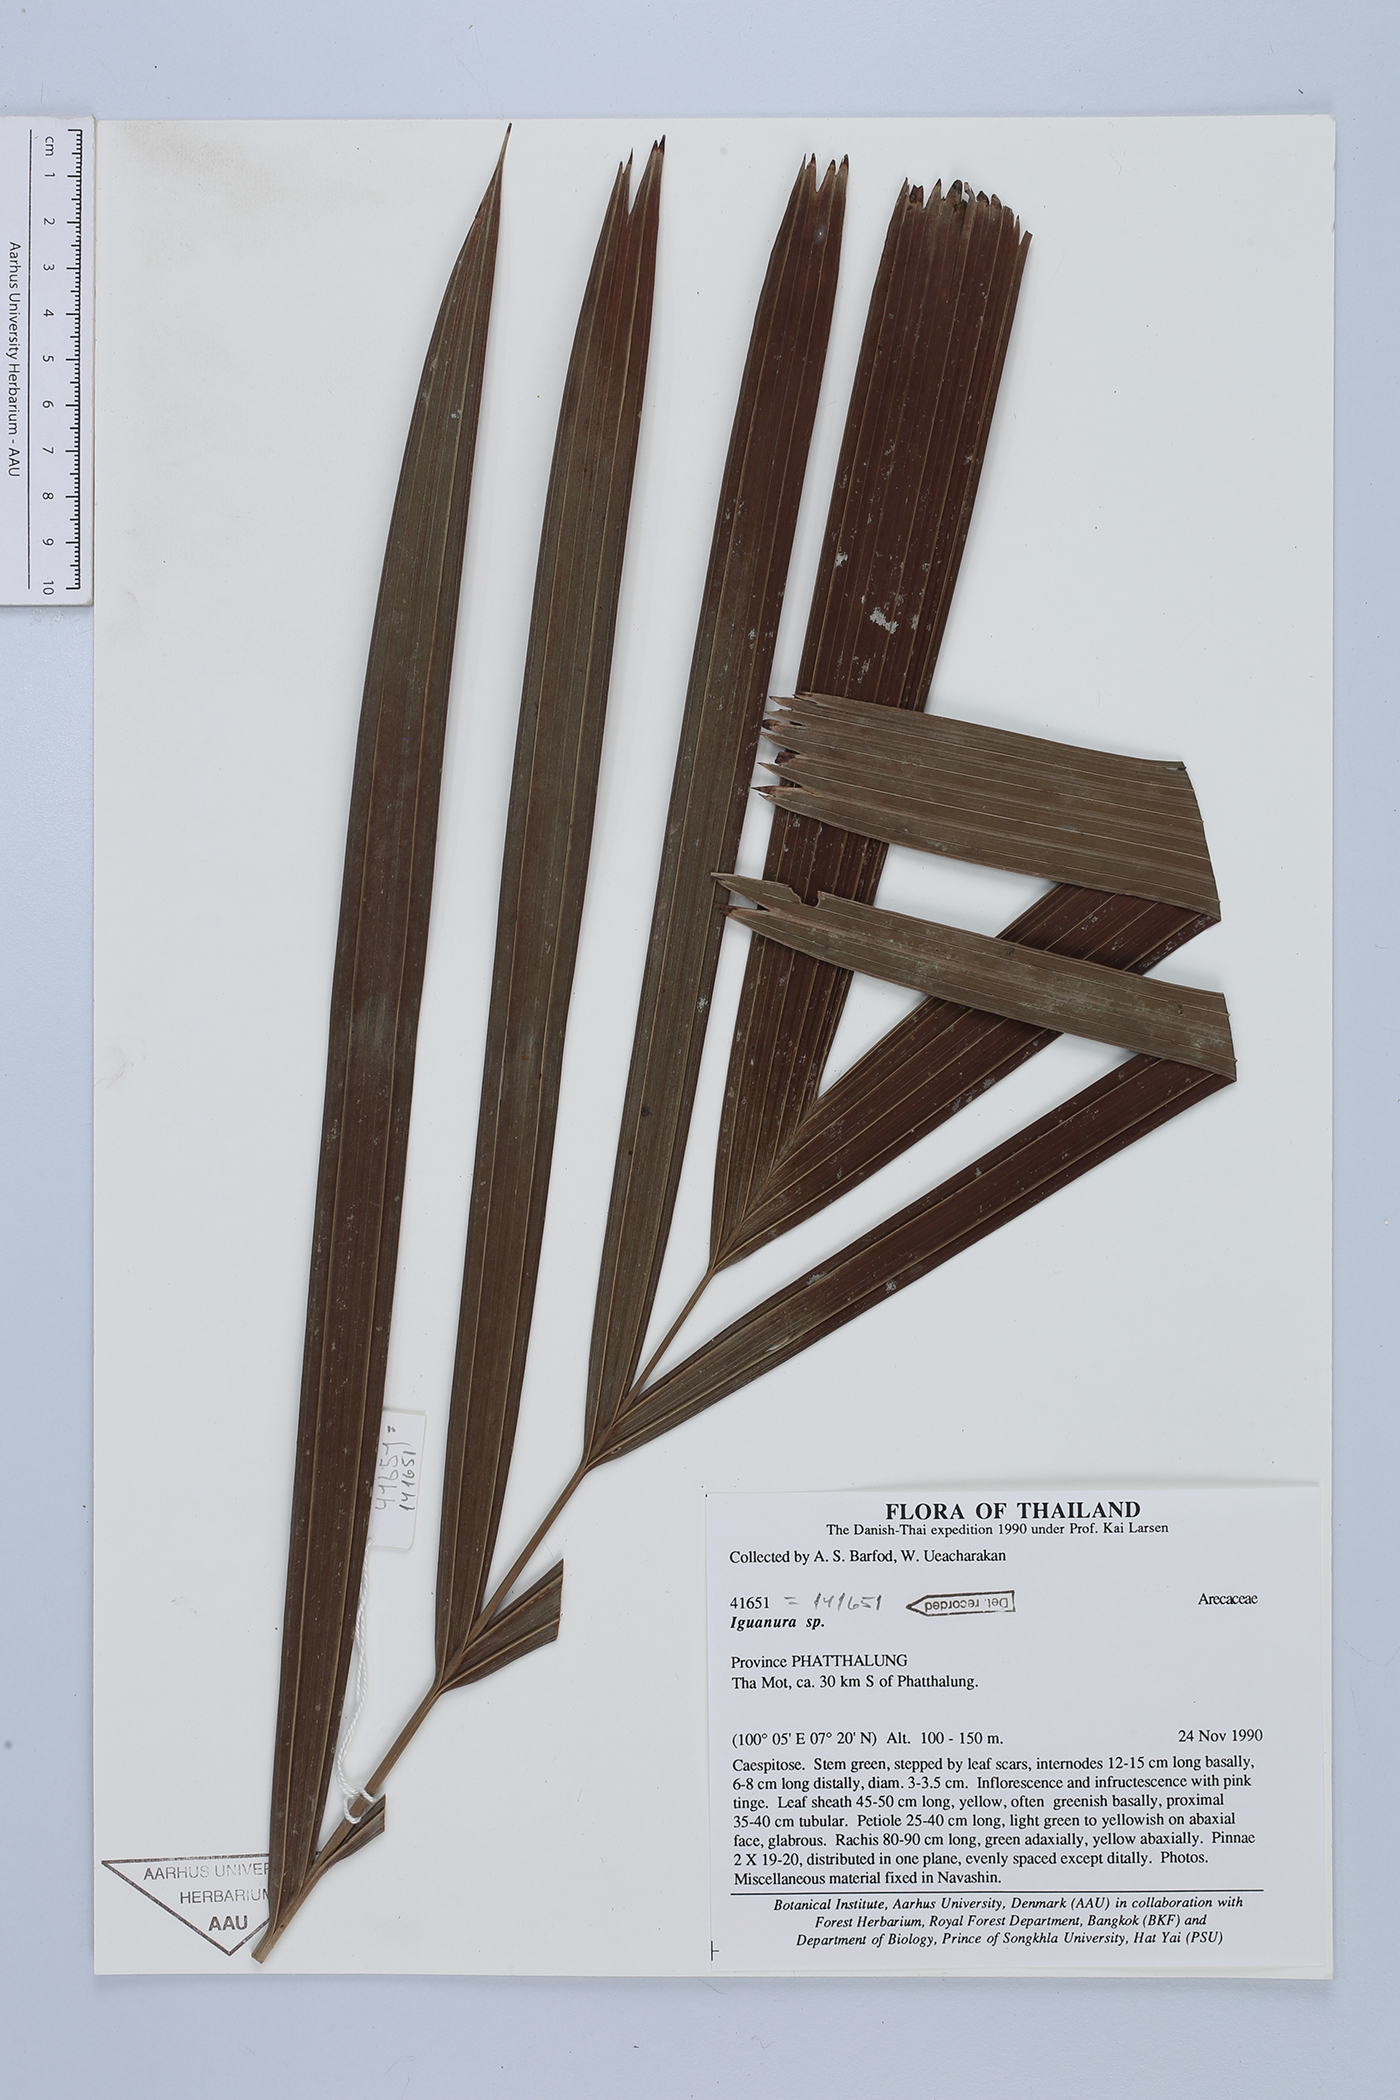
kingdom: Plantae
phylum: Tracheophyta
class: Liliopsida
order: Arecales
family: Arecaceae
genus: Pinanga
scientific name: Pinanga
